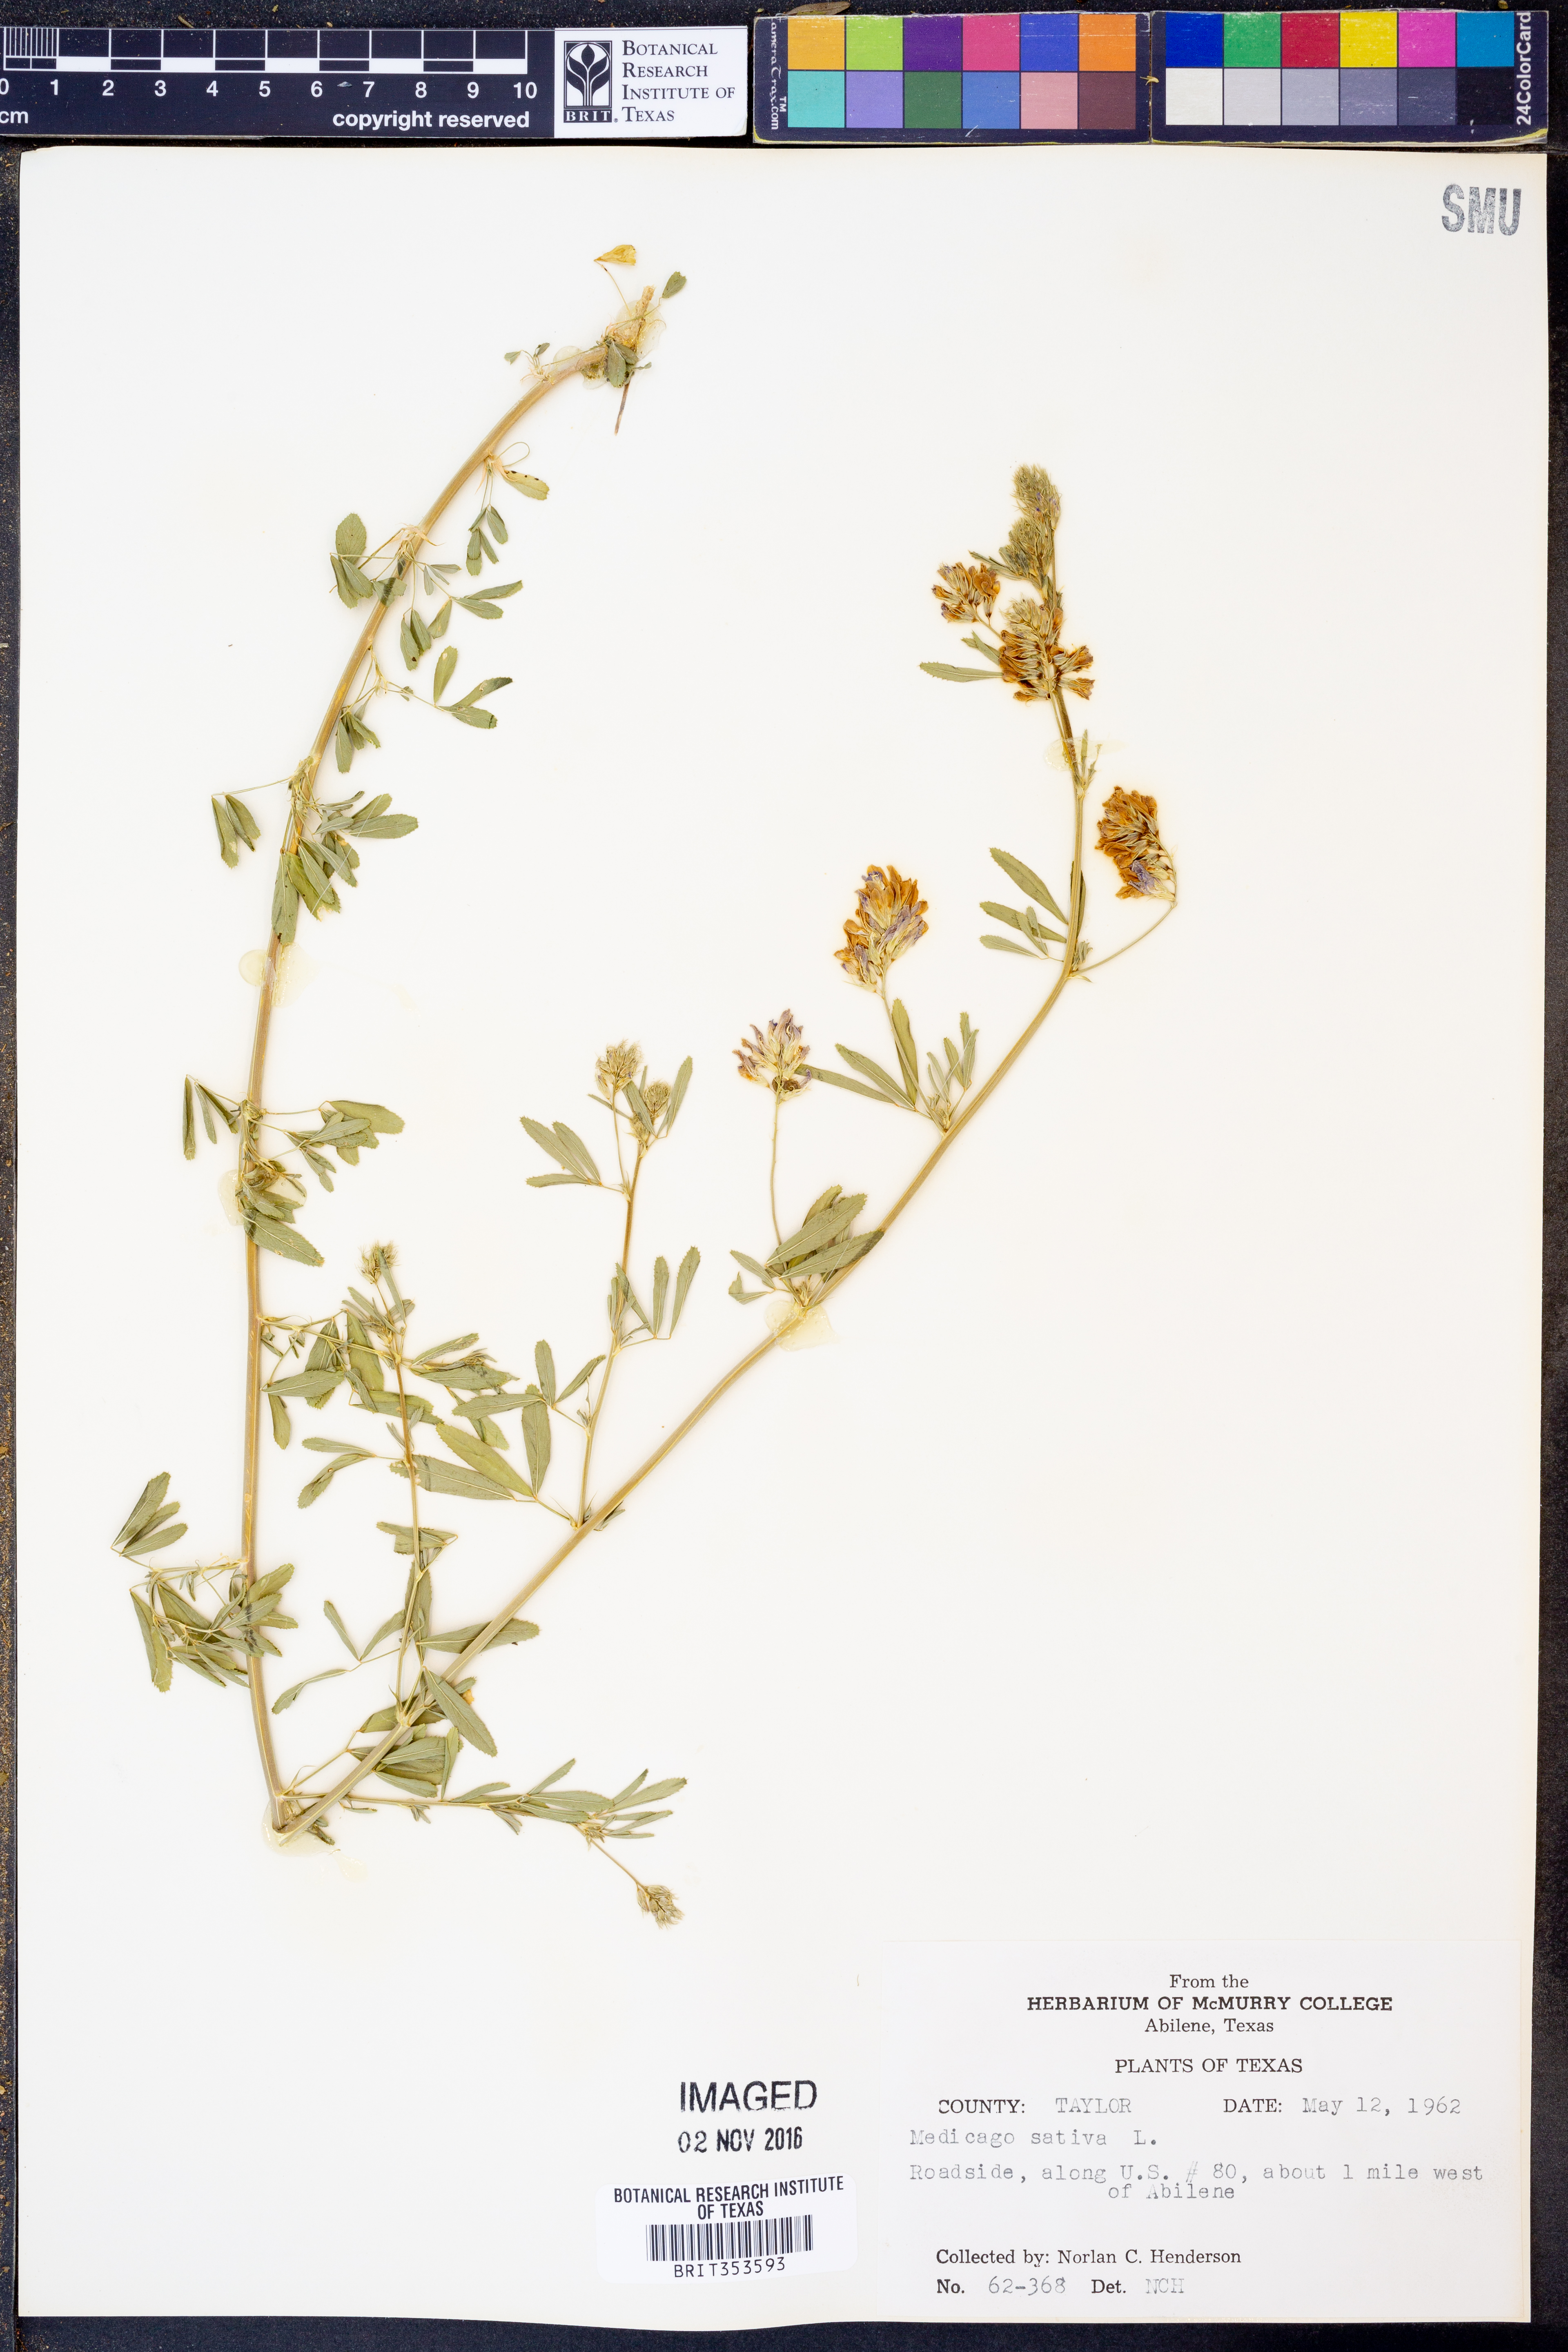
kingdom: Plantae
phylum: Tracheophyta
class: Magnoliopsida
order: Fabales
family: Fabaceae
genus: Medicago
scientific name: Medicago sativa
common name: Alfalfa
